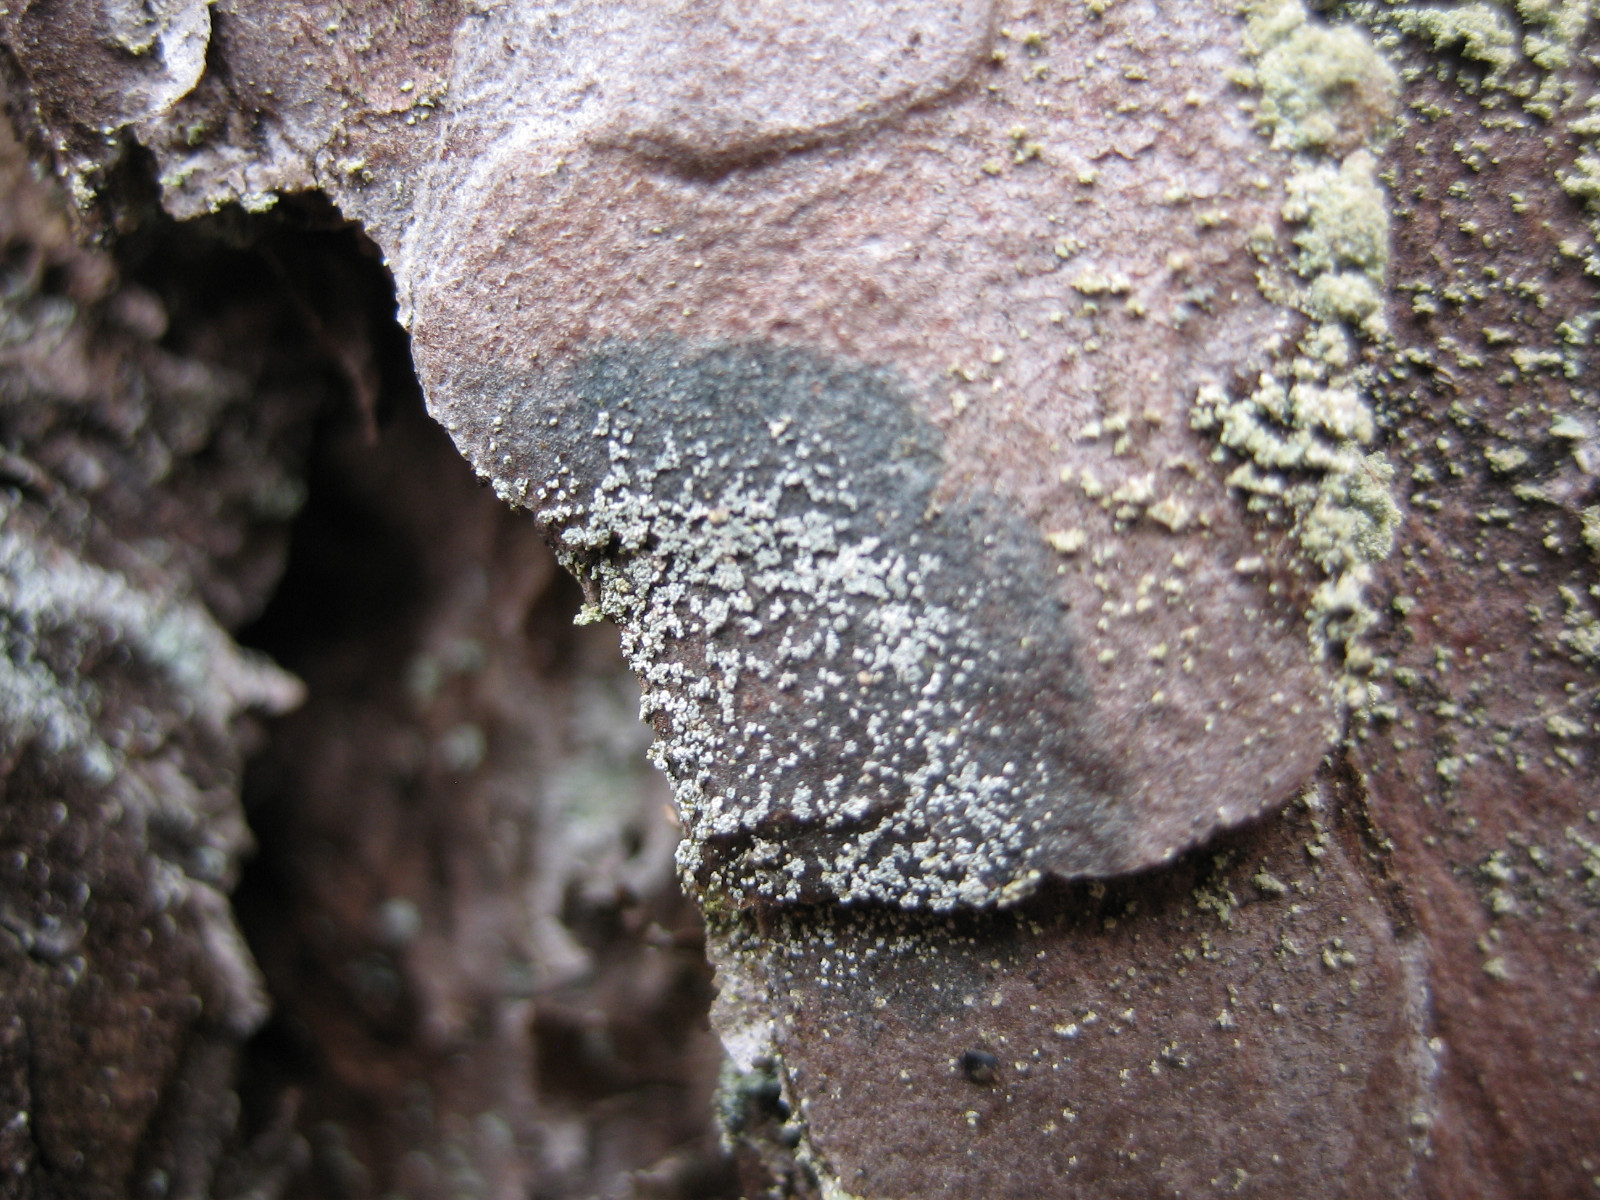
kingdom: Fungi
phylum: Ascomycota
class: Lecanoromycetes
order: Lecideales
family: Lecideaceae
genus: Lecidea
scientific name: Lecidea nylanderi
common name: Nylander's tile lichen
